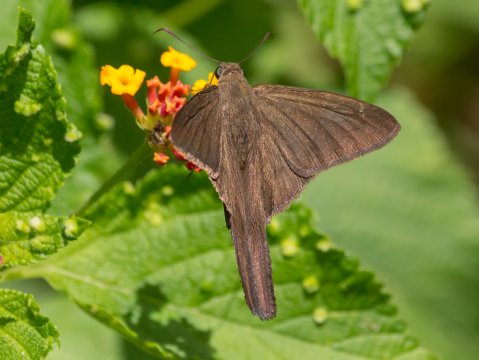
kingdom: Animalia
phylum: Arthropoda
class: Insecta
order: Lepidoptera
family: Hesperiidae
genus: Urbanus
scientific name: Urbanus procne
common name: Brown Longtail
